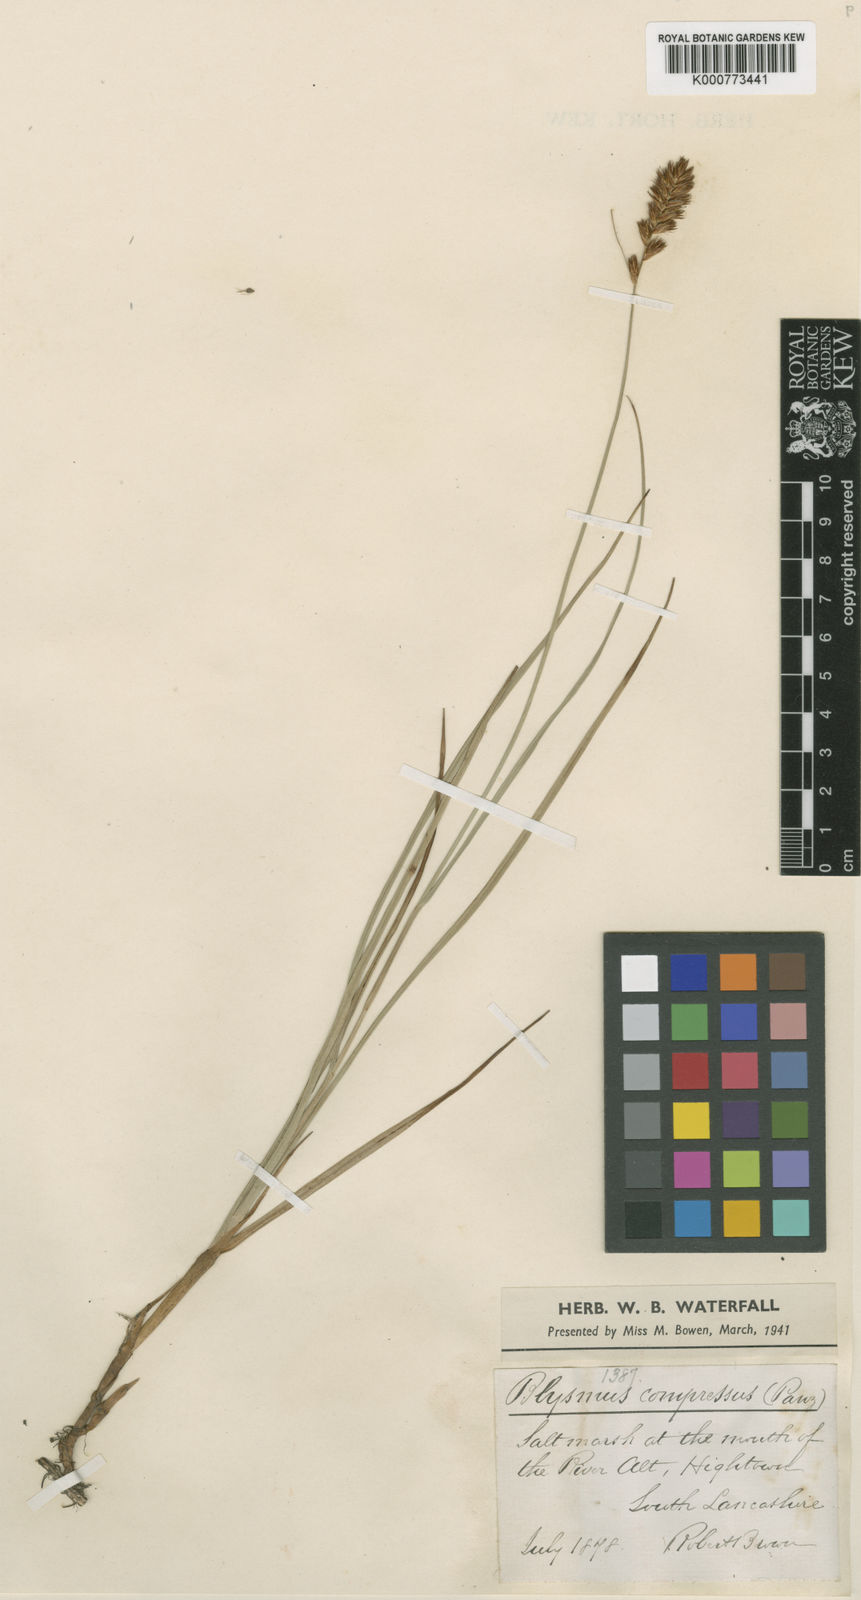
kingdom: Plantae
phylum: Tracheophyta
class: Liliopsida
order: Poales
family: Cyperaceae
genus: Blysmus
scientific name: Blysmus compressus
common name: Flat-sedge
